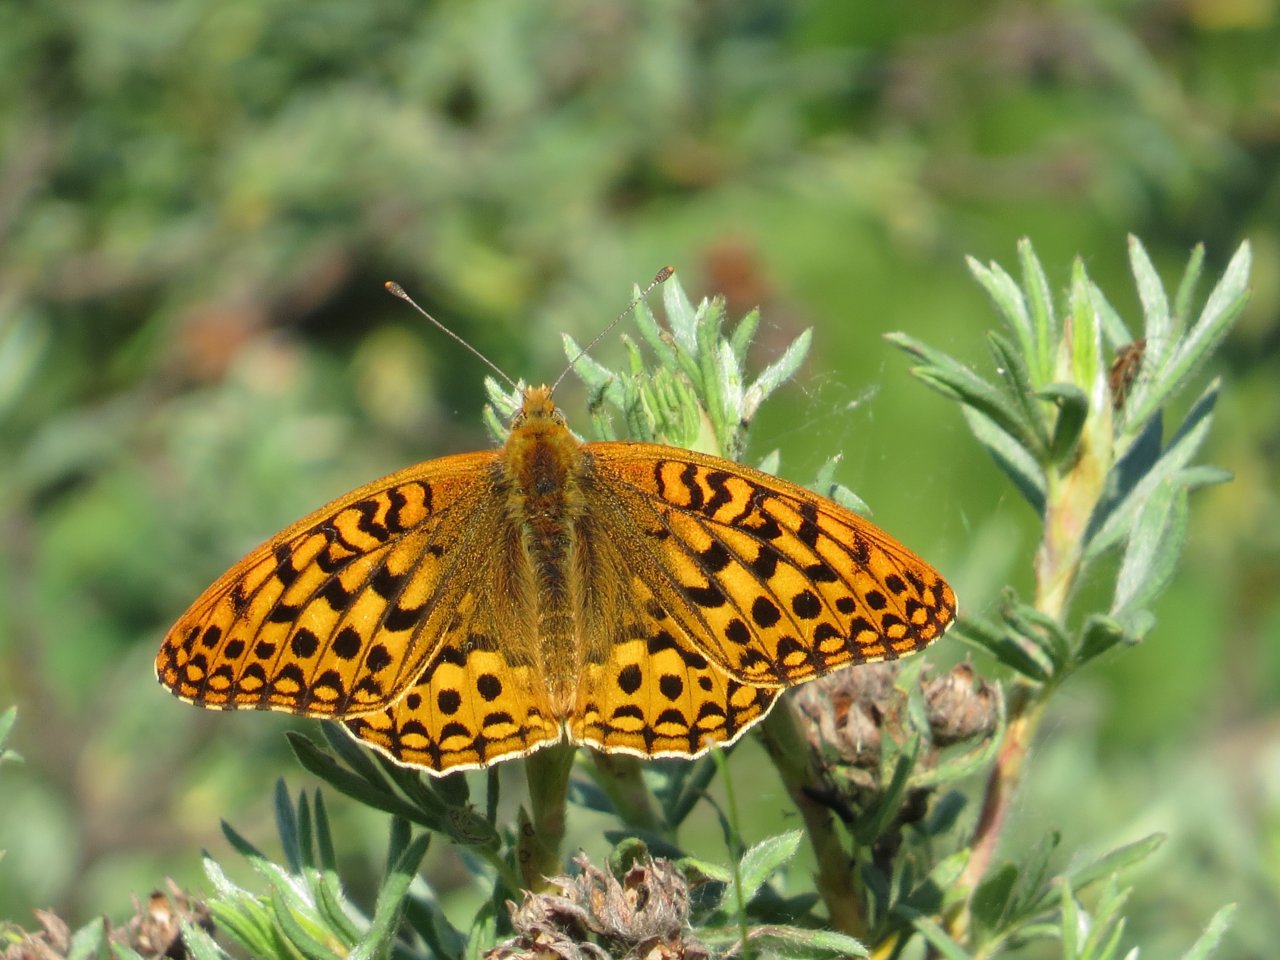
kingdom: Animalia
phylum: Arthropoda
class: Insecta
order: Lepidoptera
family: Nymphalidae
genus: Speyeria
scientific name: Speyeria mormonia
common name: Mormon Fritillary
